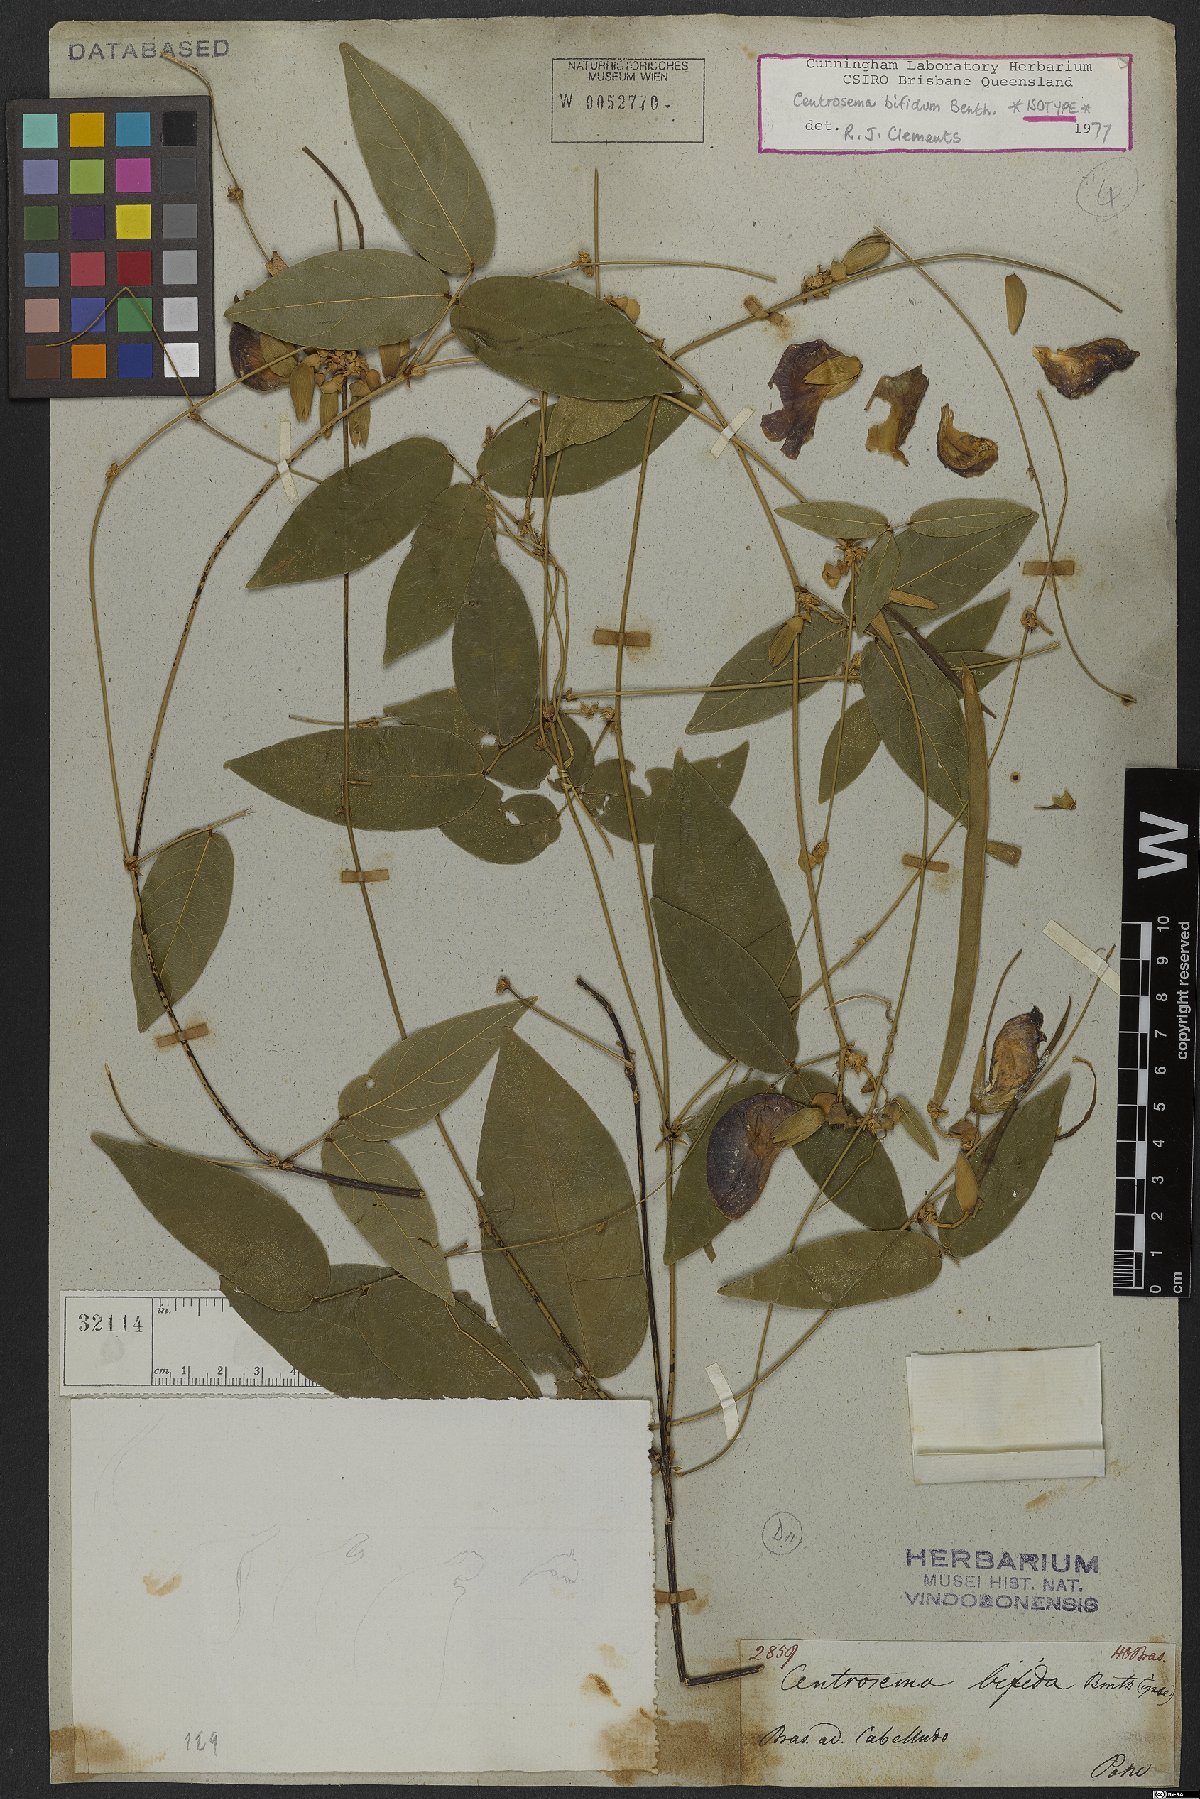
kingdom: Plantae
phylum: Tracheophyta
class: Magnoliopsida
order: Fabales
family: Fabaceae
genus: Centrosema
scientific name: Centrosema bifidum
